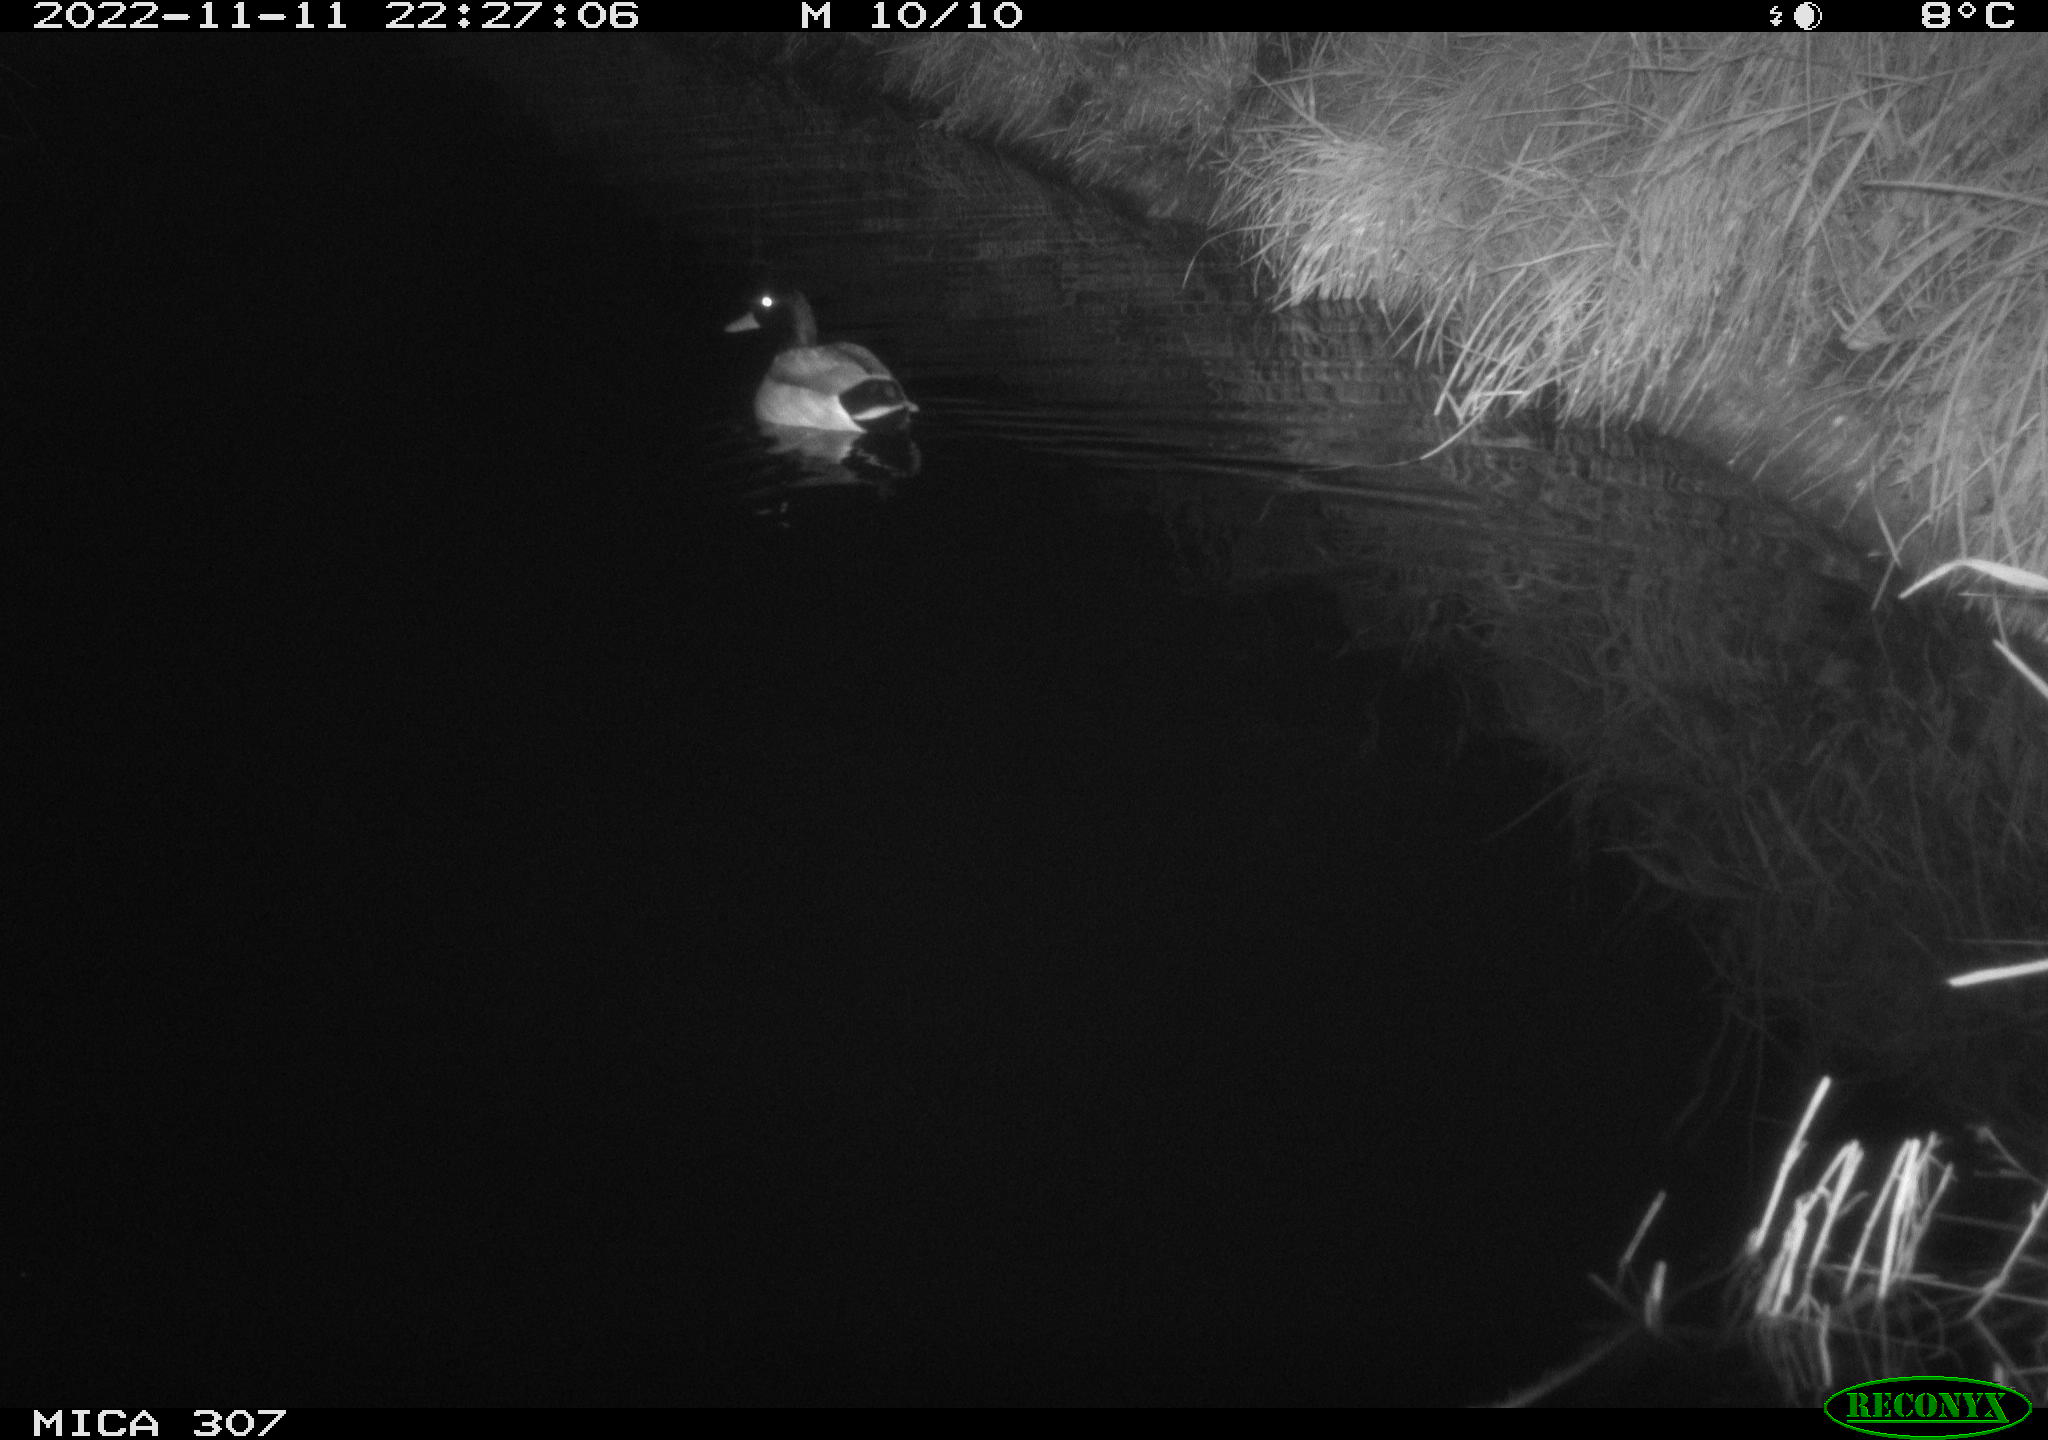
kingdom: Animalia
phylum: Chordata
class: Aves
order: Anseriformes
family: Anatidae
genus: Anas
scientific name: Anas
